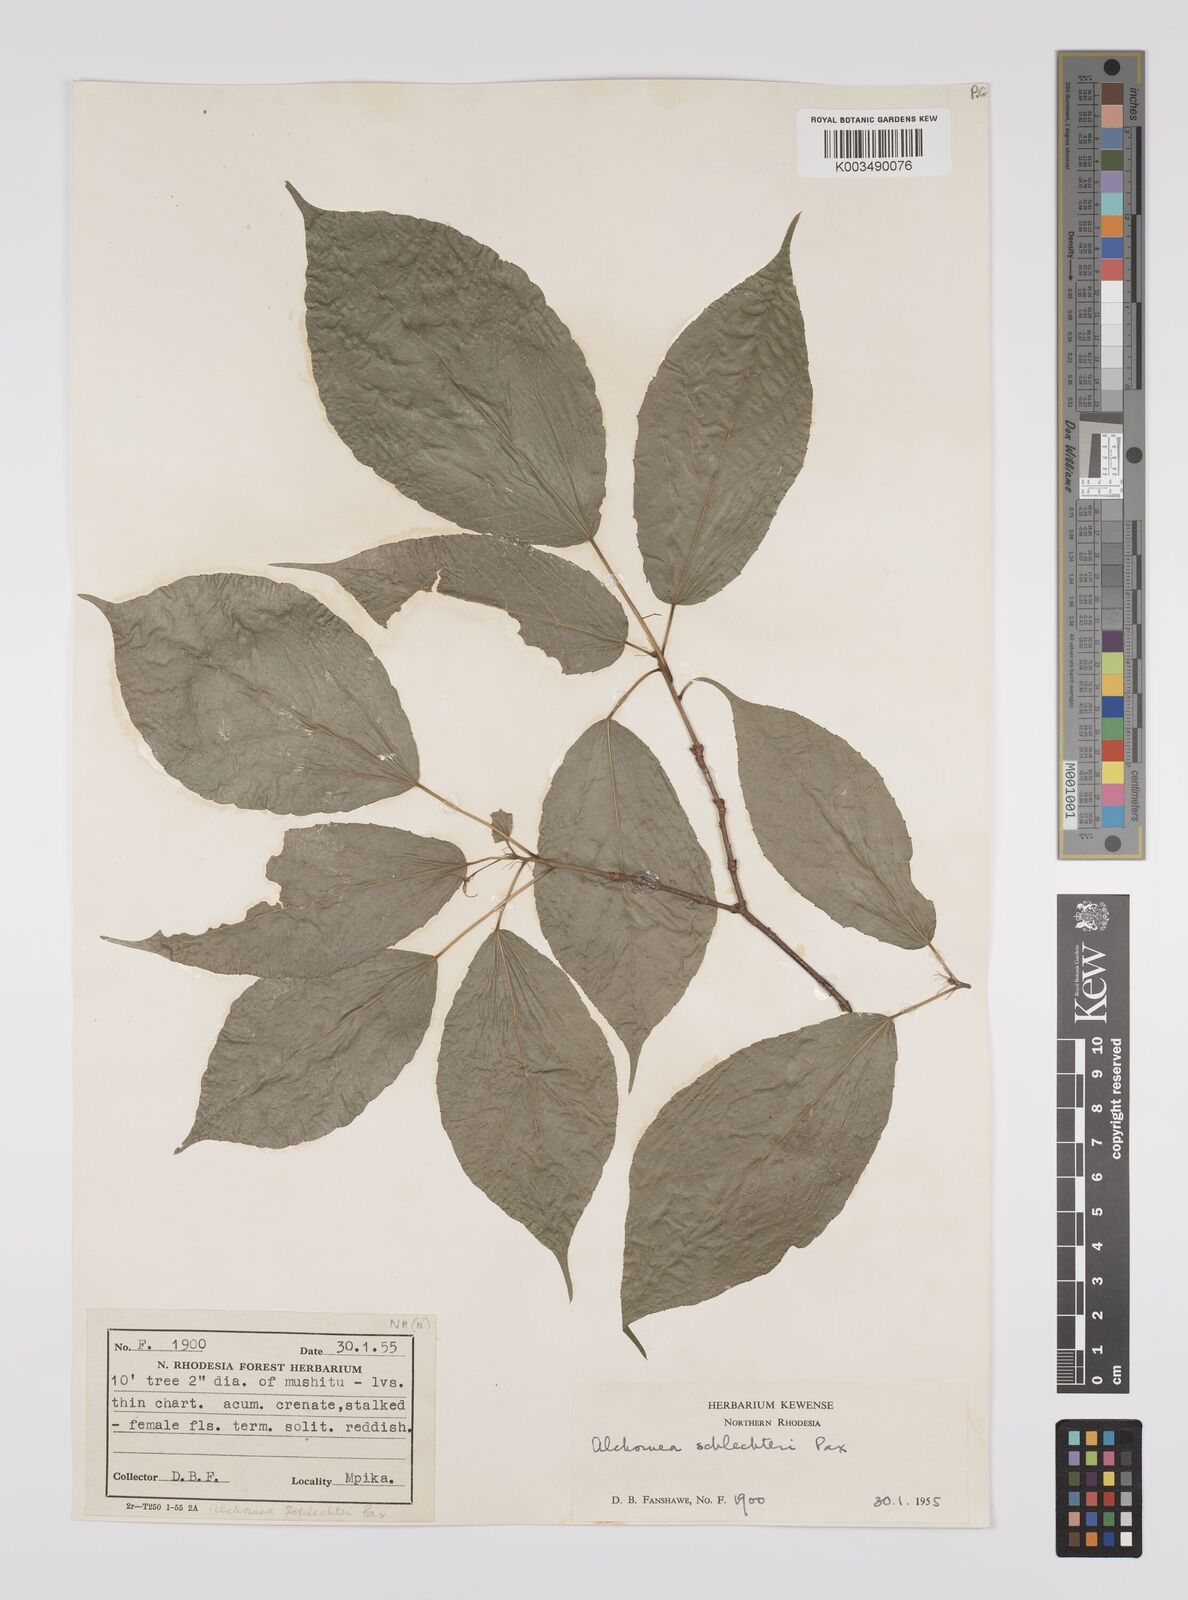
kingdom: Plantae
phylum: Tracheophyta
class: Magnoliopsida
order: Malpighiales
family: Euphorbiaceae
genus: Alchornea
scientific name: Alchornea laxiflora
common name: Lowveld bead-string
